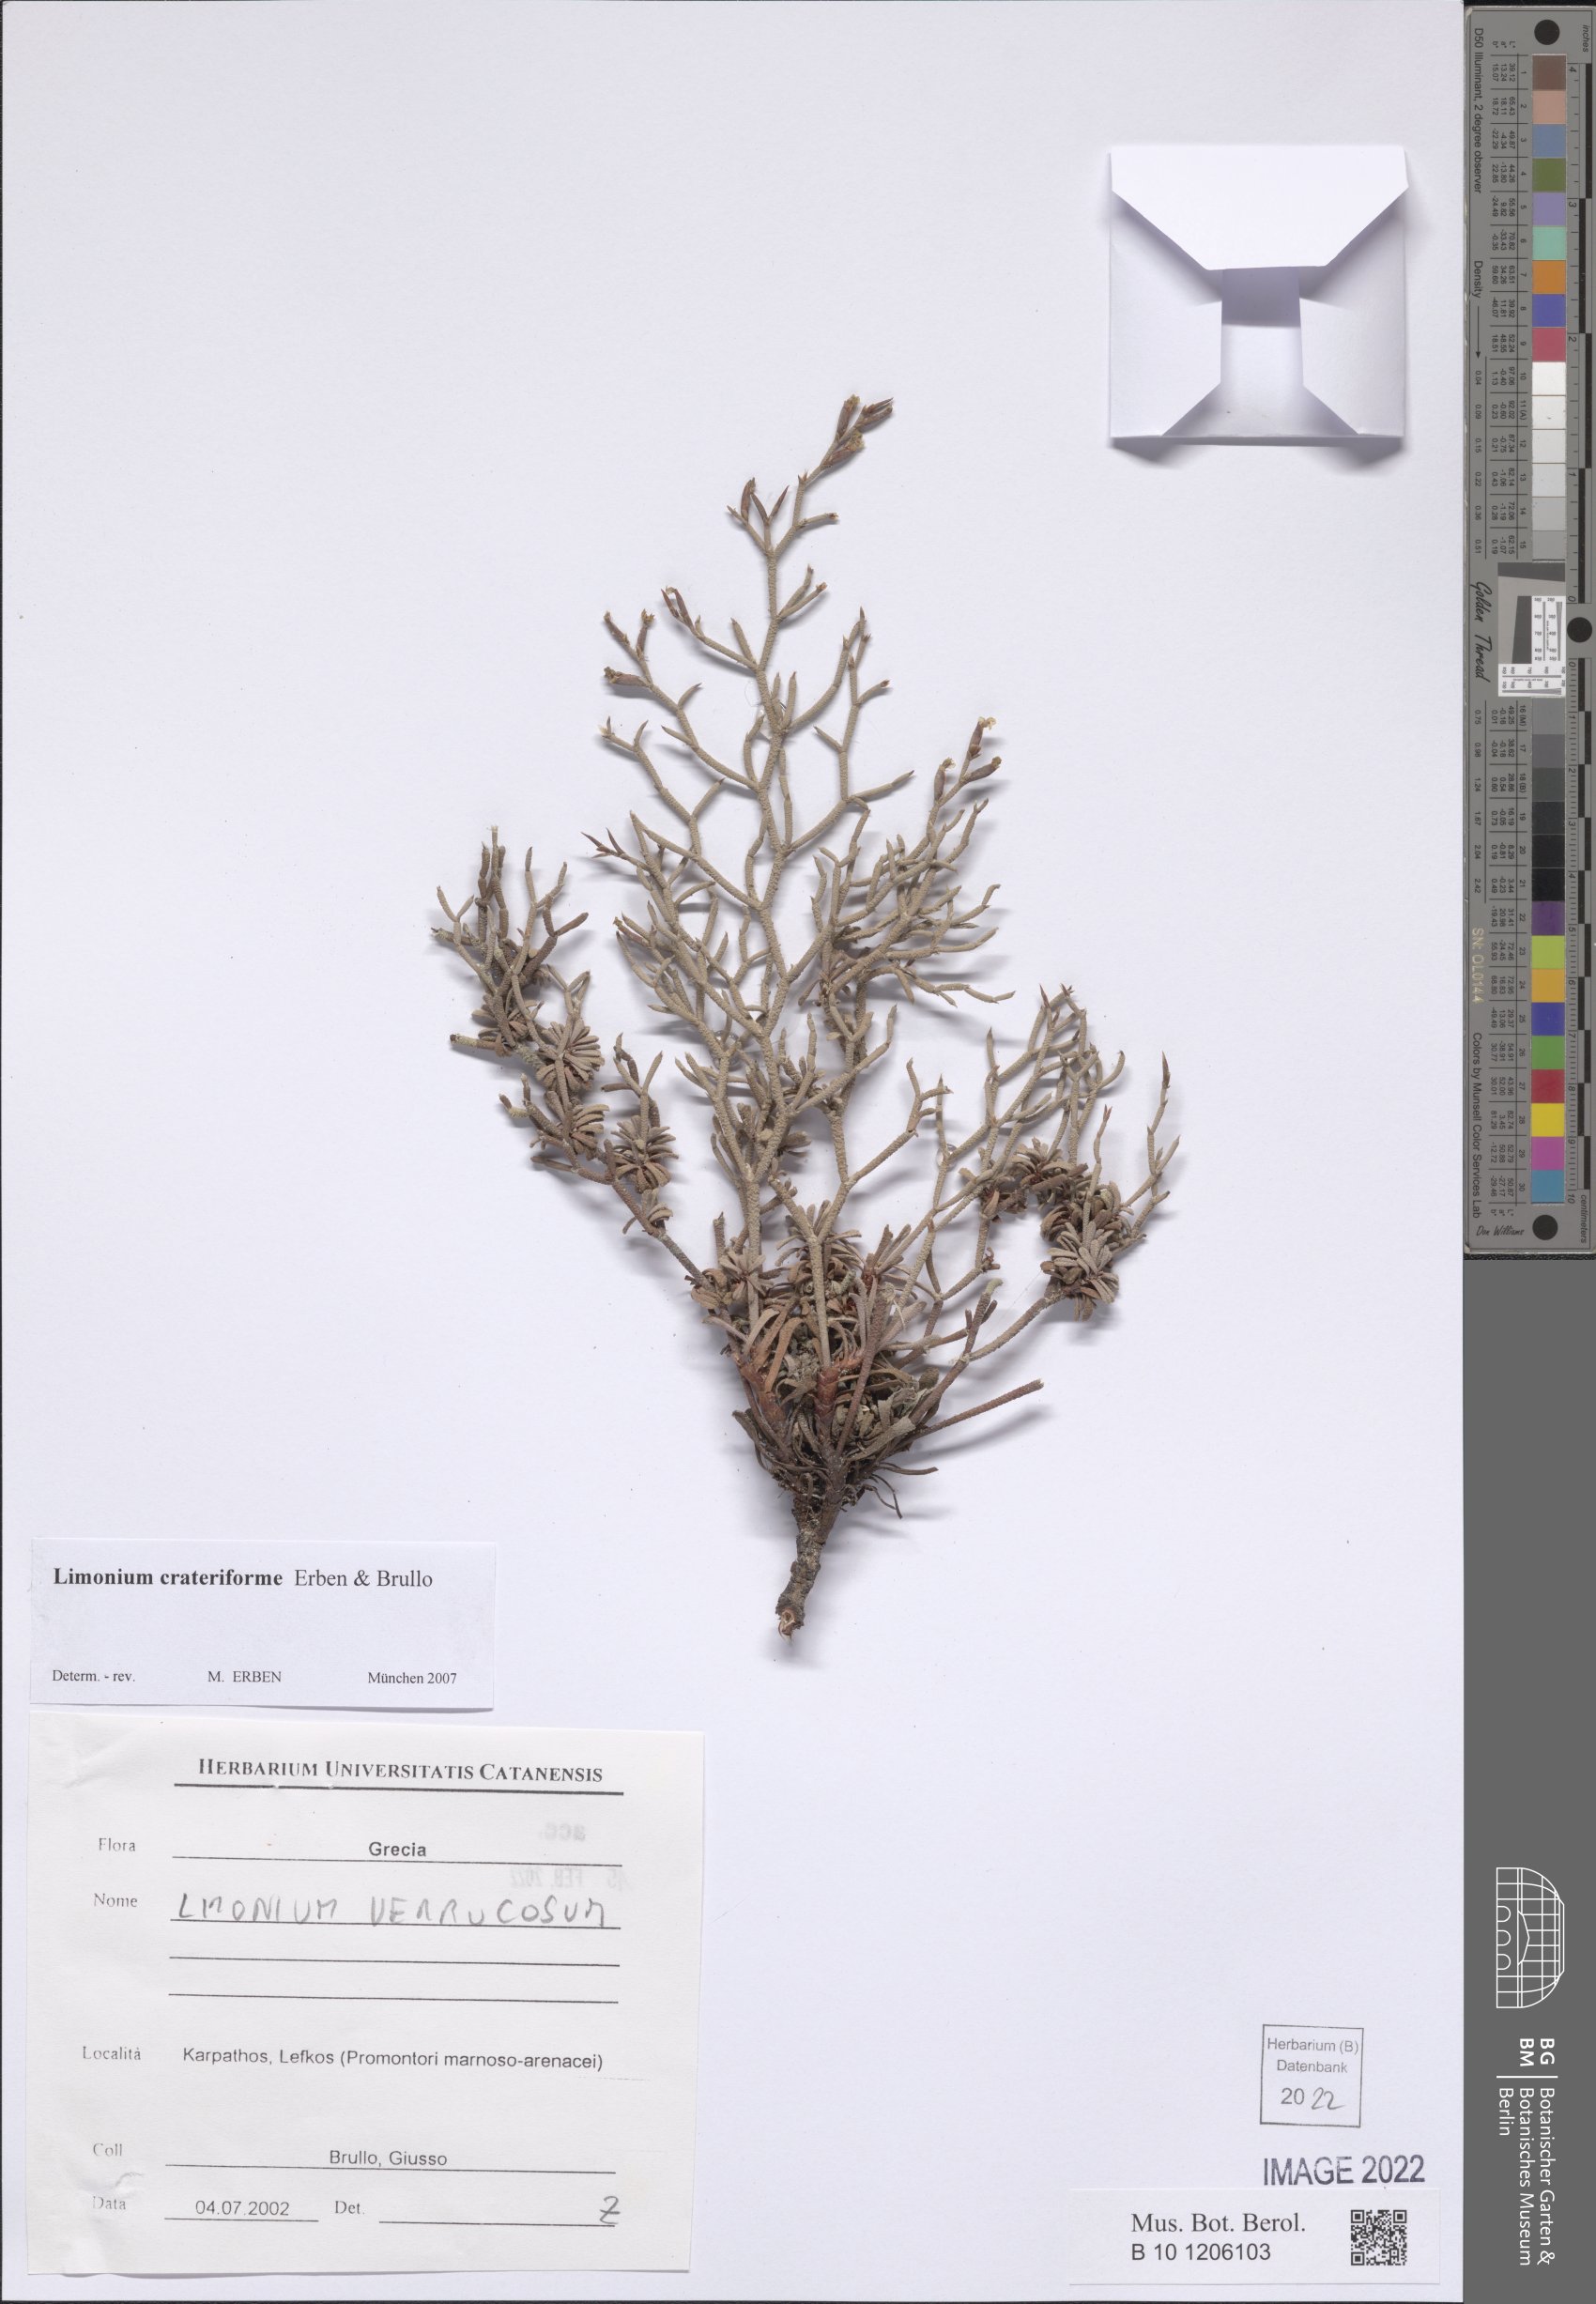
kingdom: Plantae
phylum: Tracheophyta
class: Magnoliopsida
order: Caryophyllales
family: Plumbaginaceae
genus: Limonium
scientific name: Limonium crateriforme
